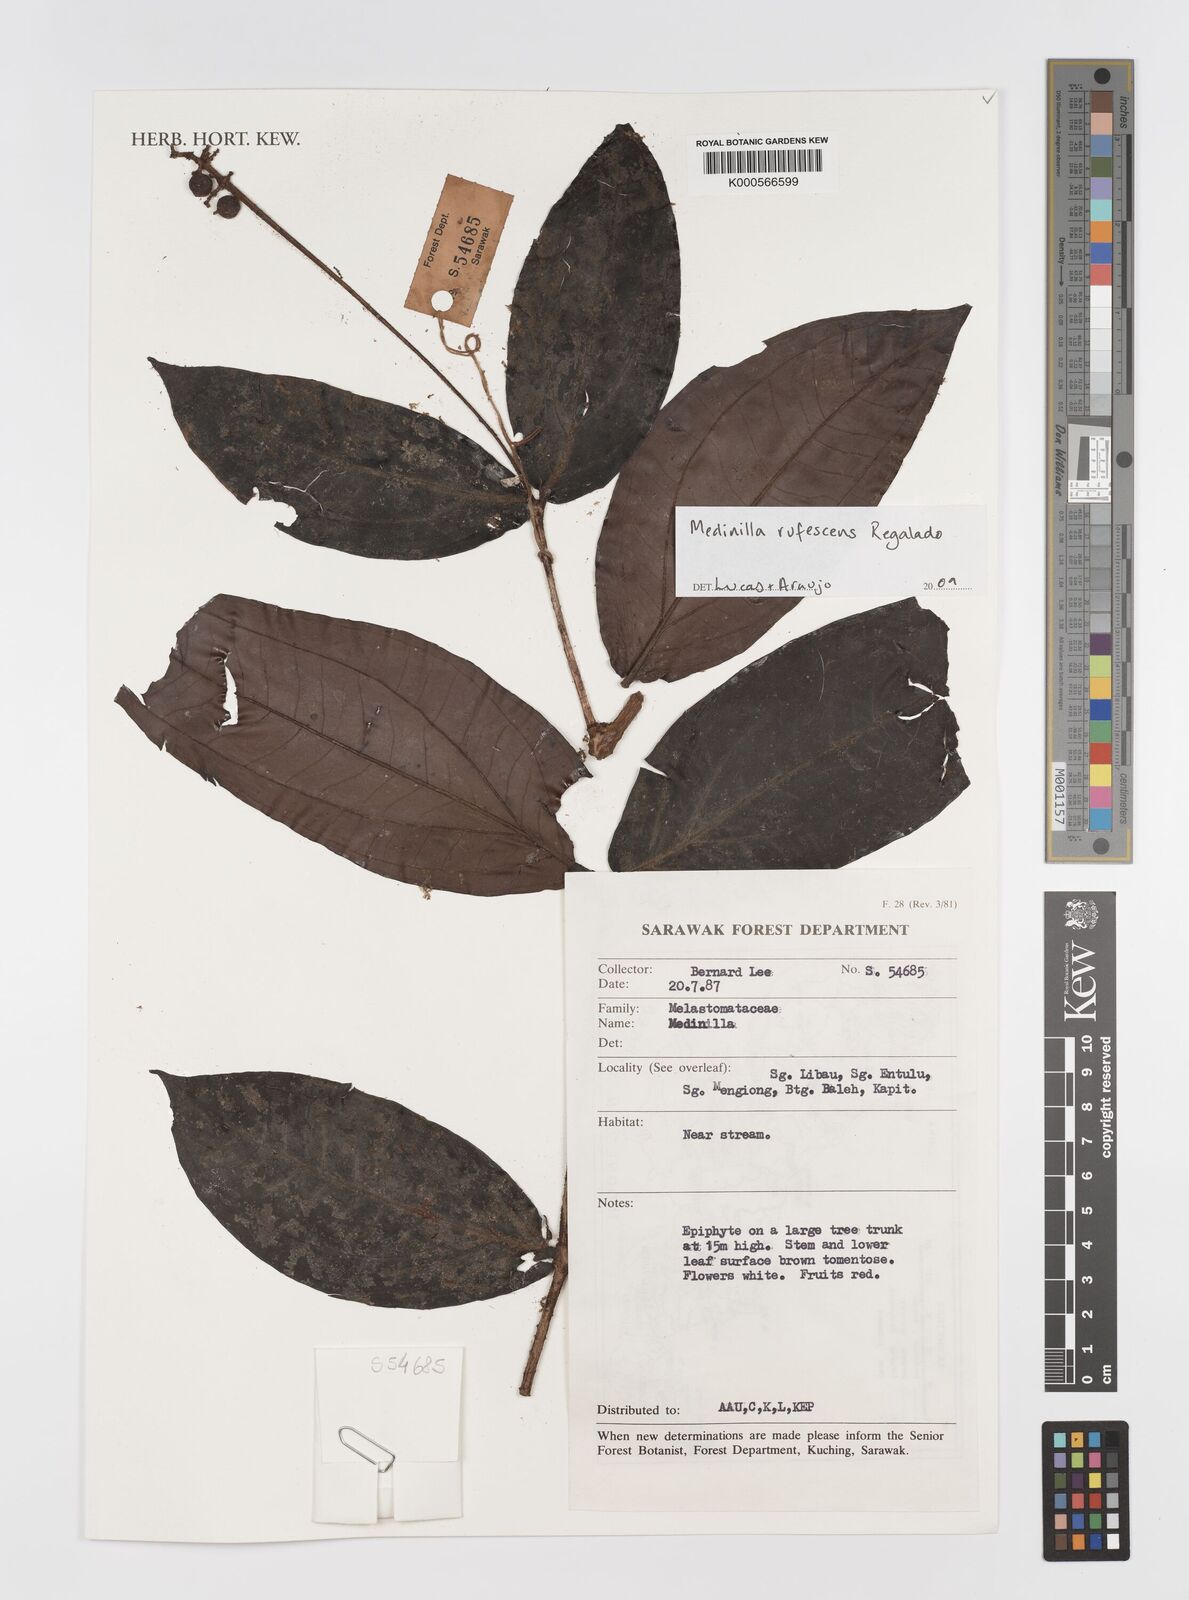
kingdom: Plantae
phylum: Tracheophyta
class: Magnoliopsida
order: Myrtales
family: Melastomataceae
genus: Medinilla
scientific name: Medinilla rufescens
